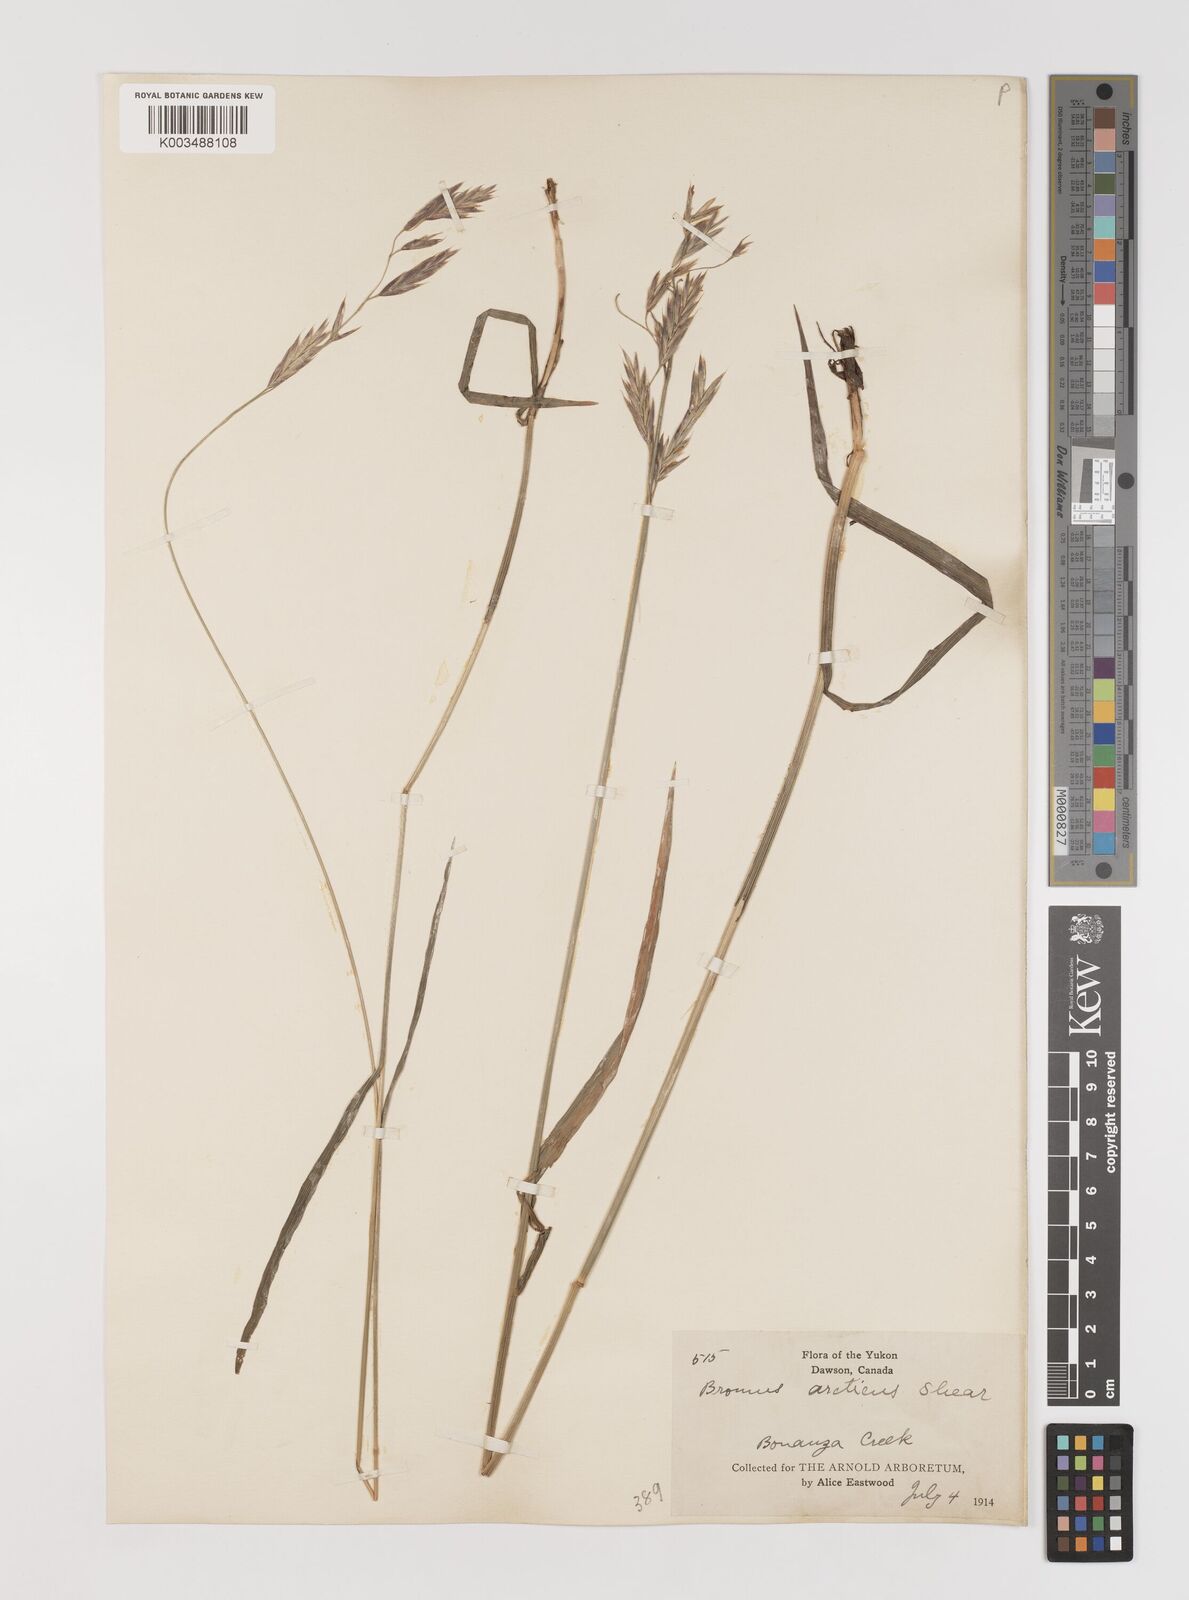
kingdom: Plantae
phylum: Tracheophyta
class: Liliopsida
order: Poales
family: Poaceae
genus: Bromus
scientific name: Bromus pumpellianus
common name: Pumpelly's brome
